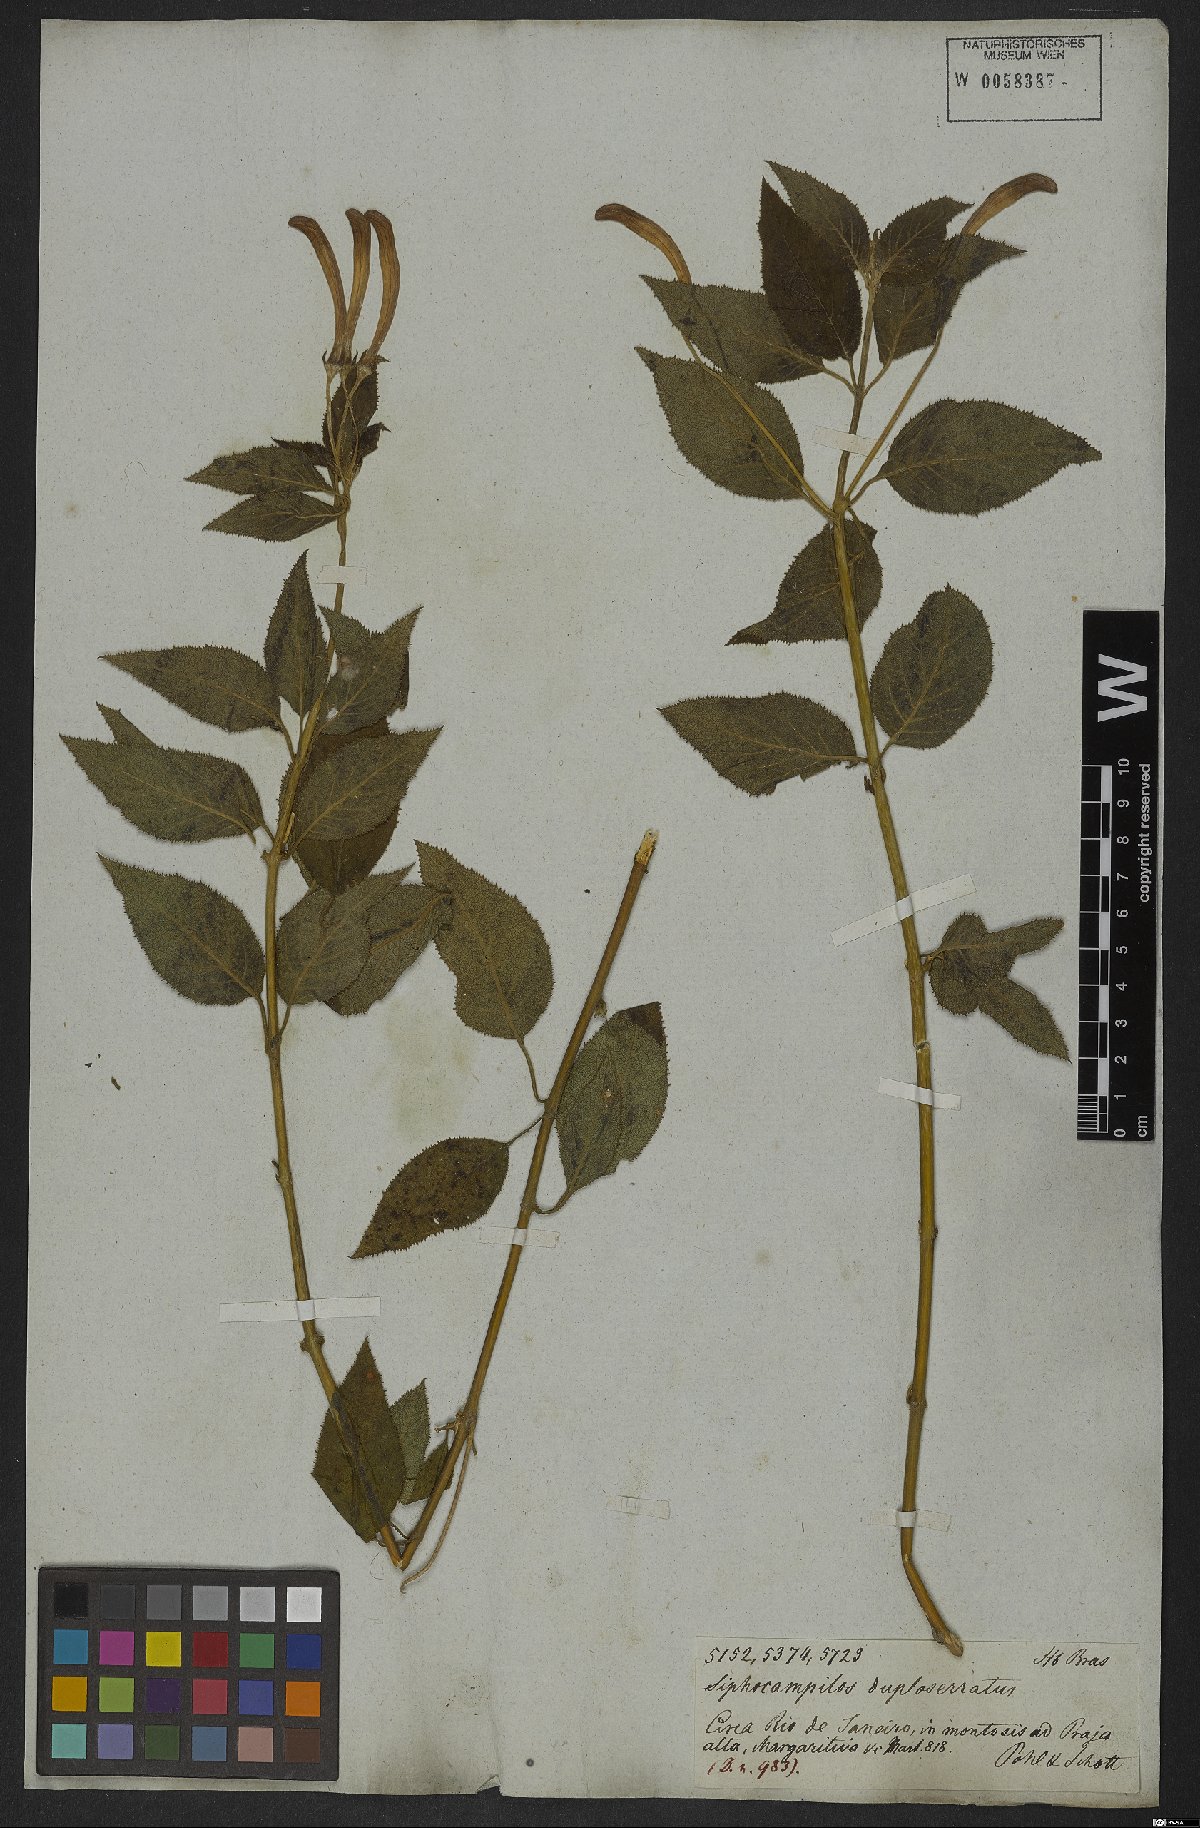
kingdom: Plantae
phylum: Tracheophyta
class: Magnoliopsida
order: Asterales
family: Campanulaceae
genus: Siphocampylus
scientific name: Siphocampylus duploserratus
